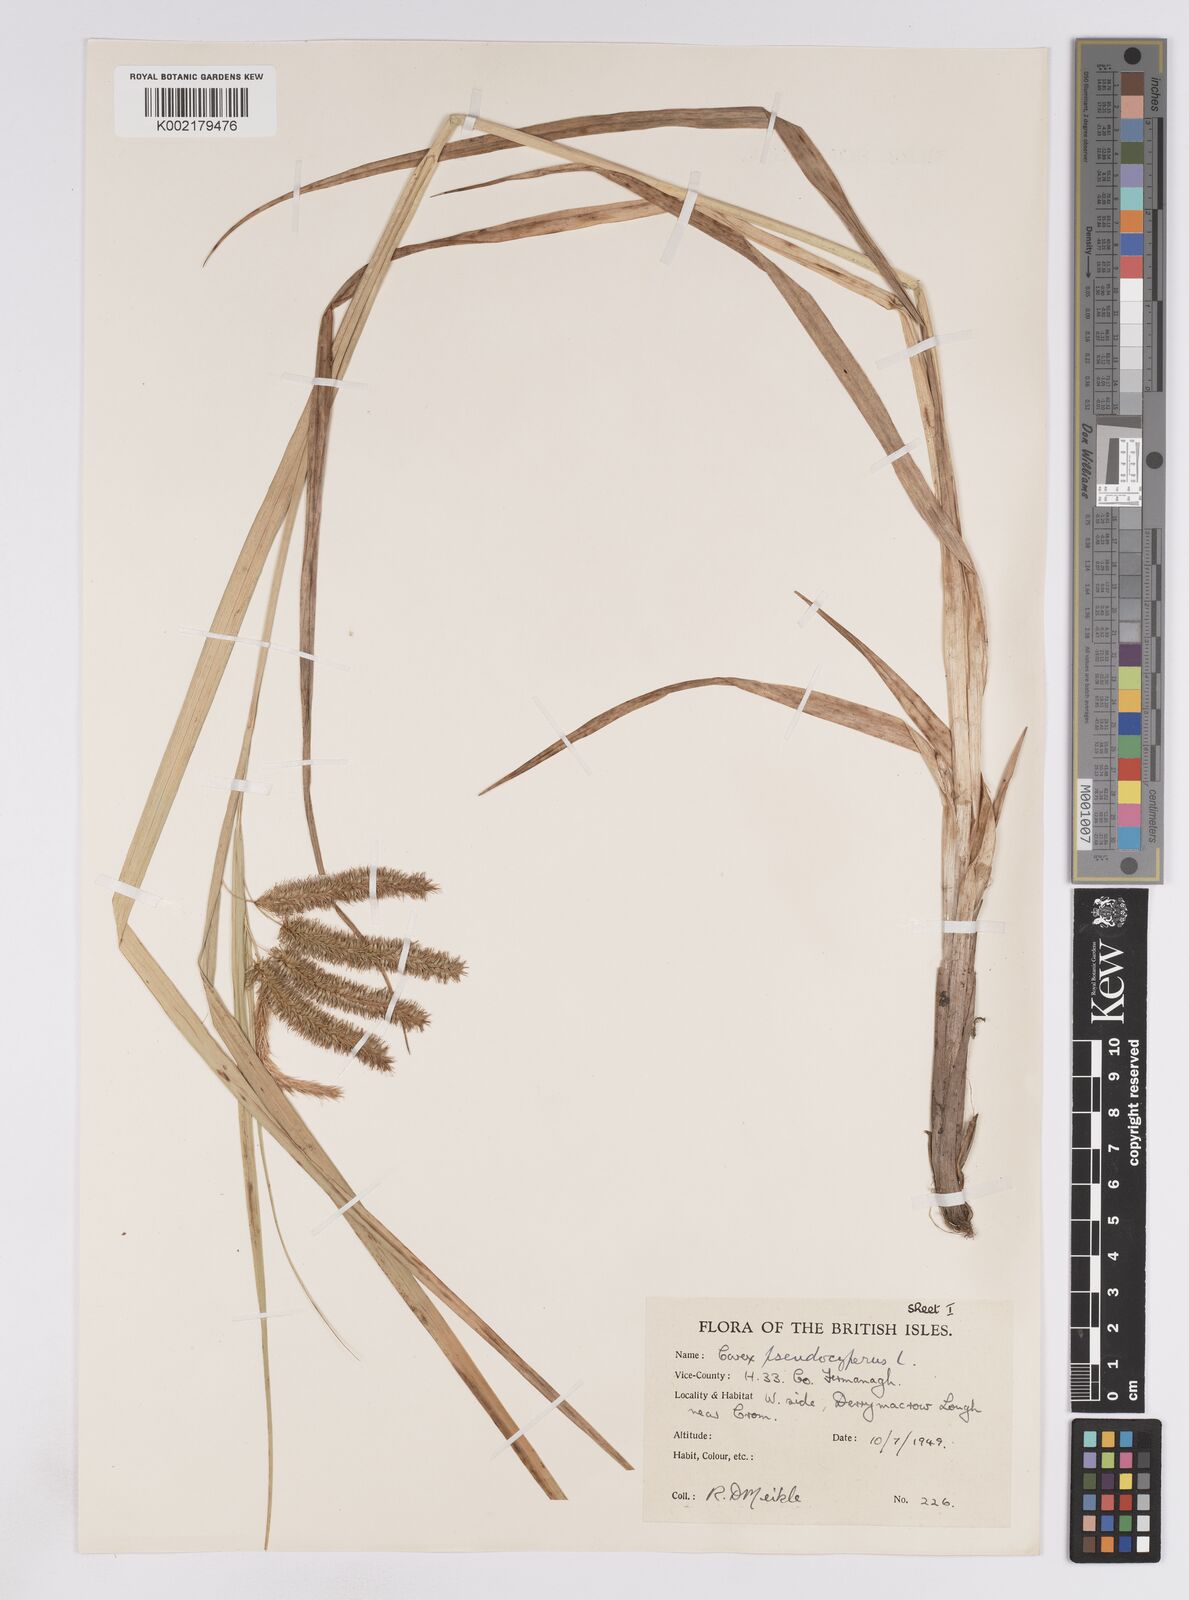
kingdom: Plantae
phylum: Tracheophyta
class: Liliopsida
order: Poales
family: Cyperaceae
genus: Carex
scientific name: Carex pseudocyperus
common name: Cyperus sedge
